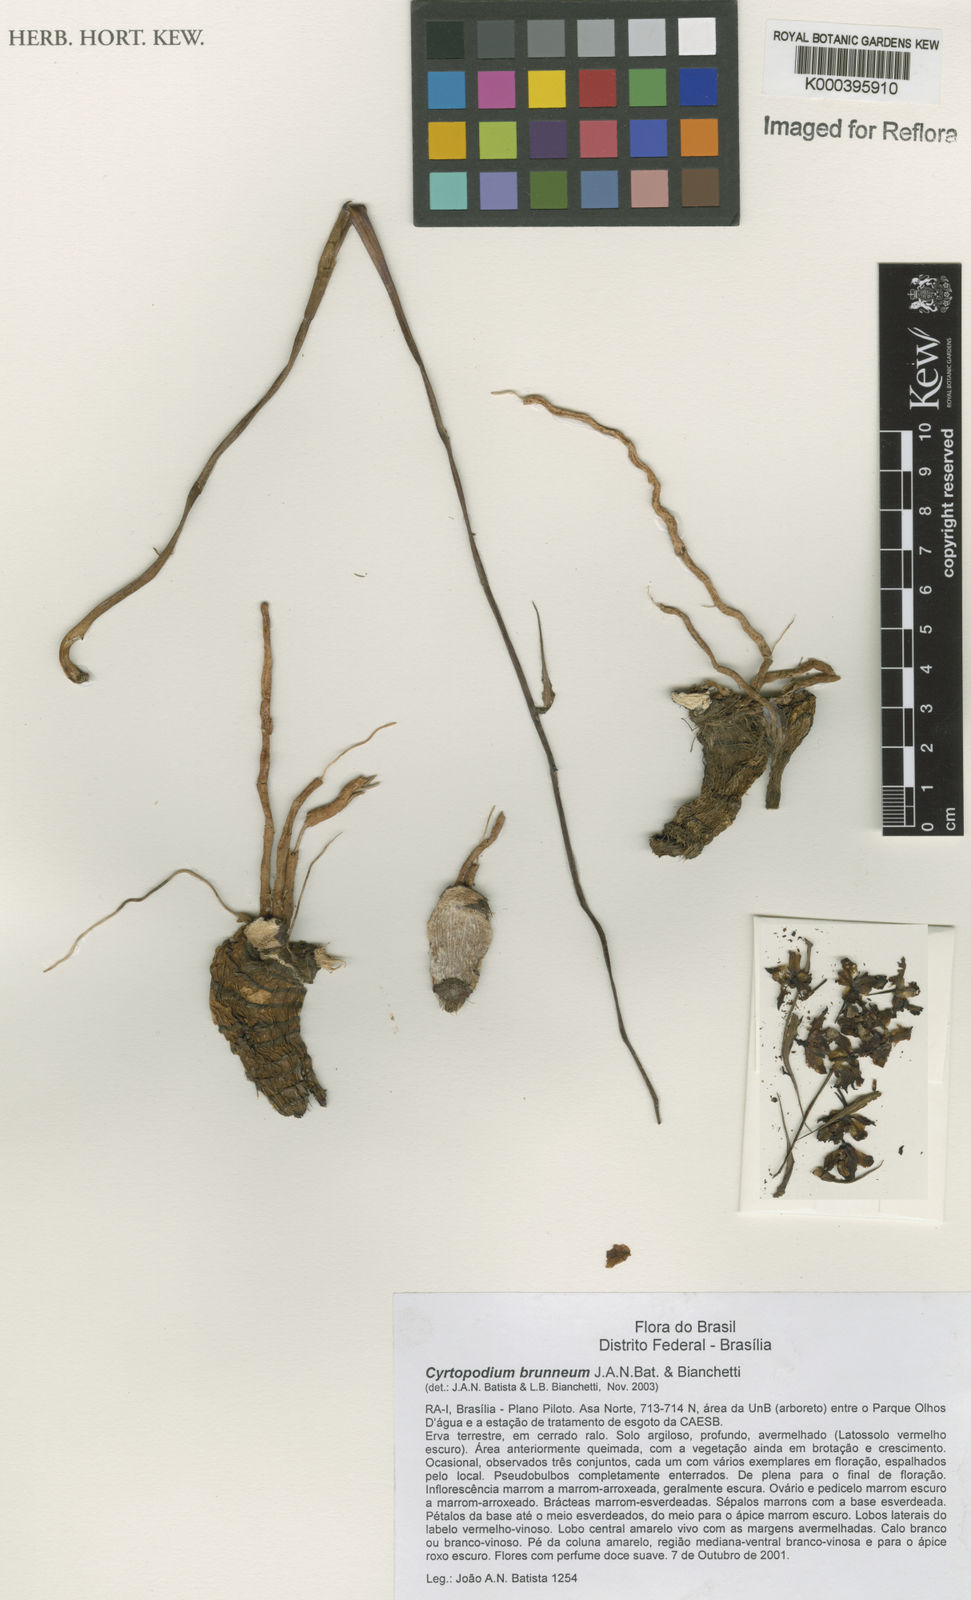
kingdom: Plantae
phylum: Tracheophyta
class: Liliopsida
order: Asparagales
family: Orchidaceae
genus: Cyrtopodium
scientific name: Cyrtopodium gonzalezii
